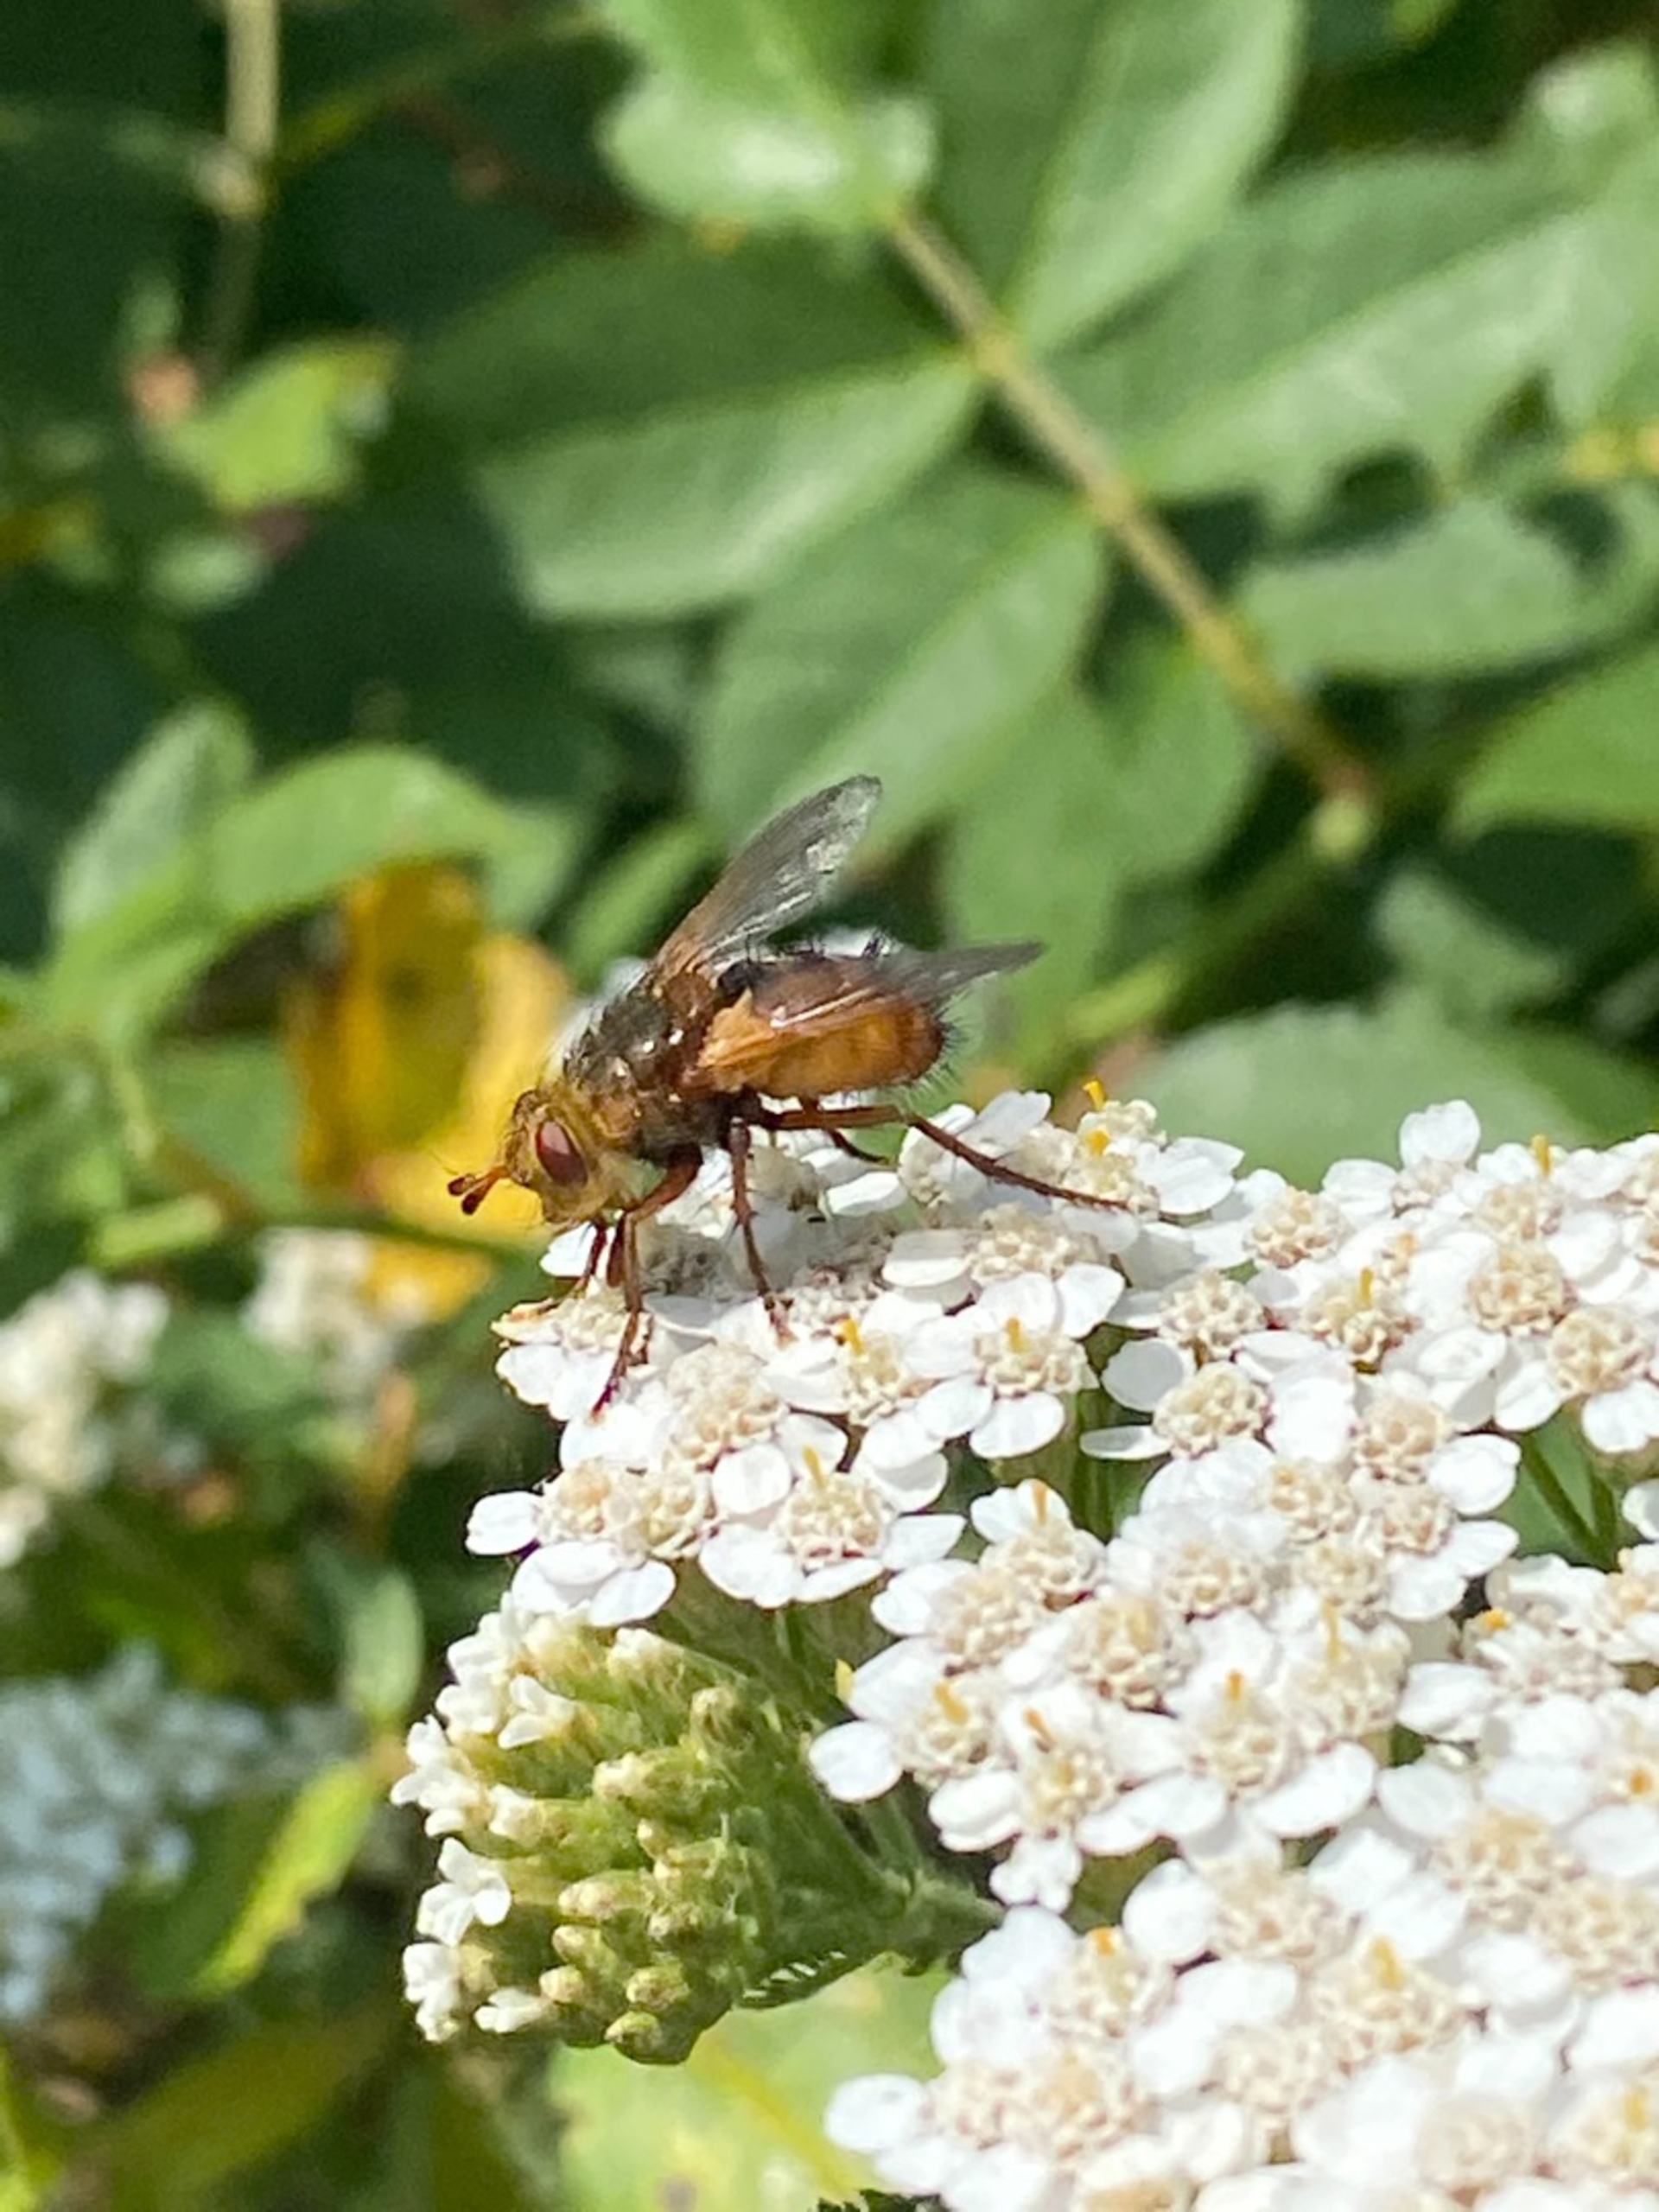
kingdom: Animalia
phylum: Arthropoda
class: Insecta
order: Diptera
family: Tachinidae
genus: Tachina
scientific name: Tachina fera
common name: Mellemfluen oskar
